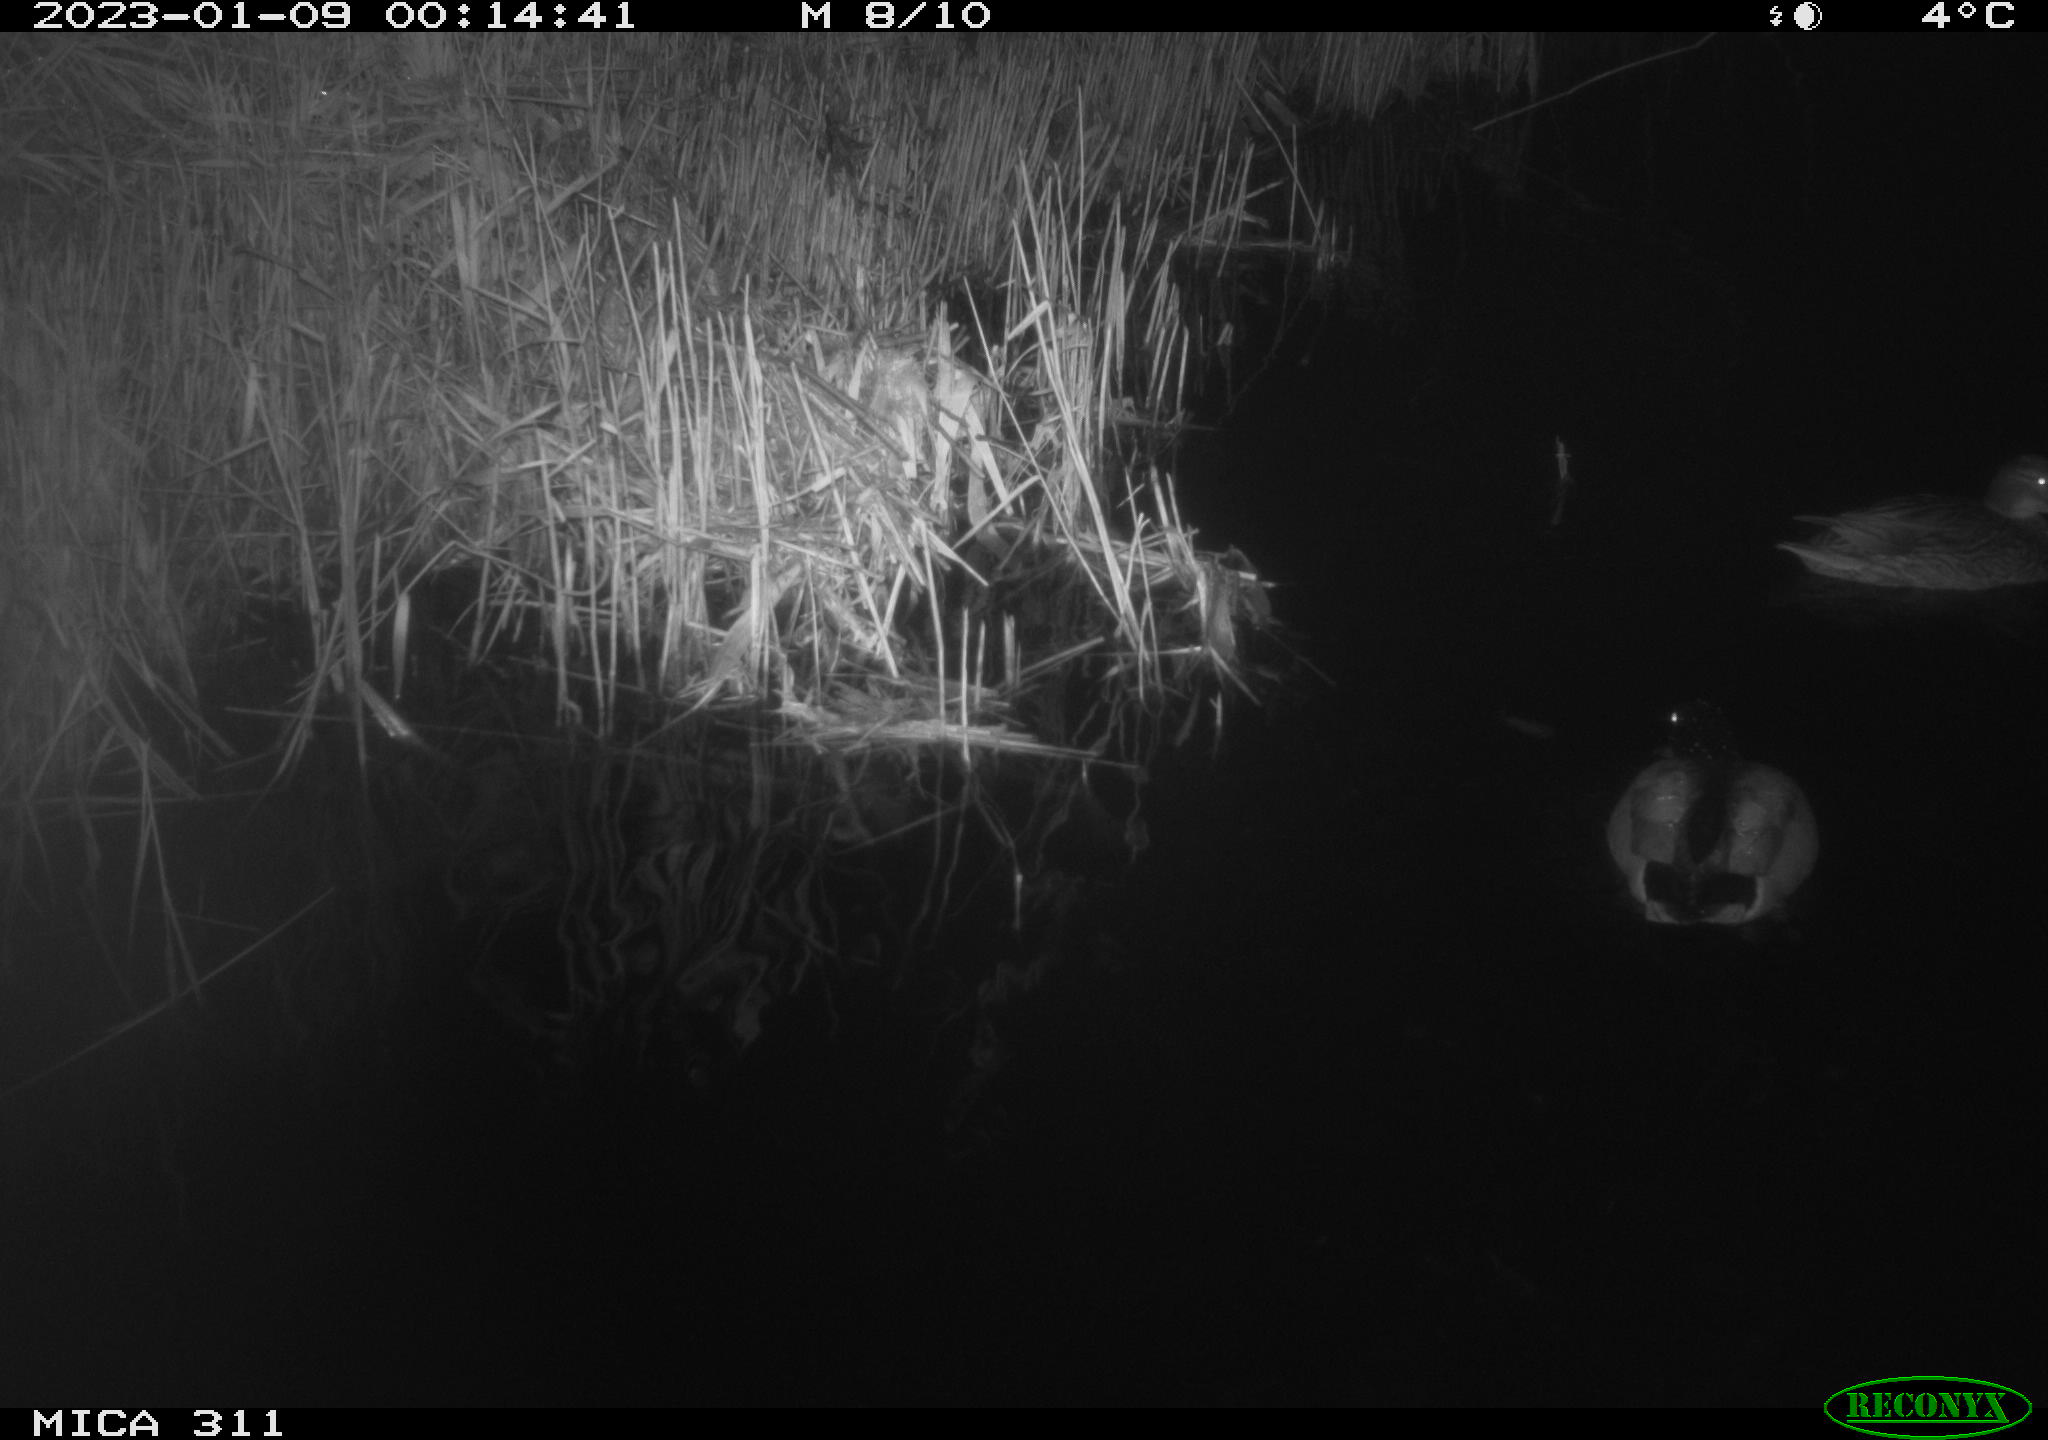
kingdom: Animalia
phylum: Chordata
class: Aves
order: Anseriformes
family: Anatidae
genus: Anas
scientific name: Anas
